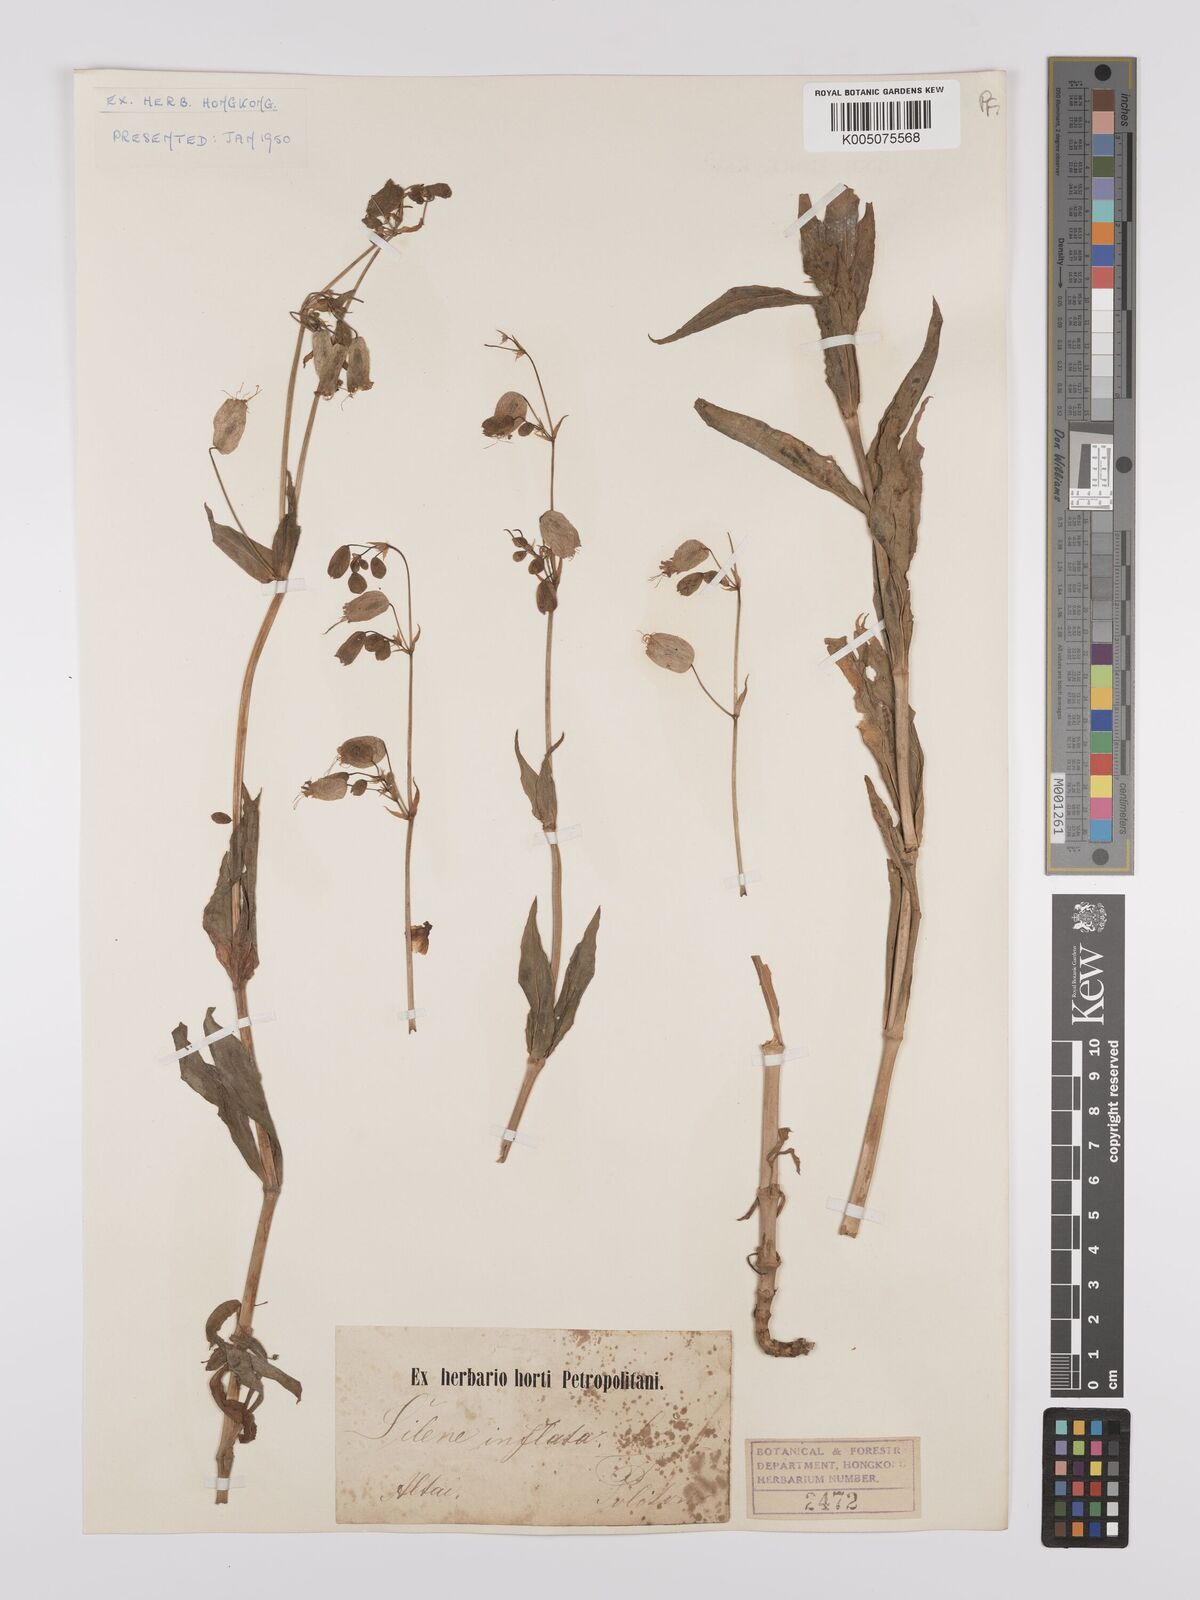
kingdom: Plantae
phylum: Tracheophyta
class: Magnoliopsida
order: Caryophyllales
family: Caryophyllaceae
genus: Silene
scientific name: Silene vulgaris
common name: Bladder campion
